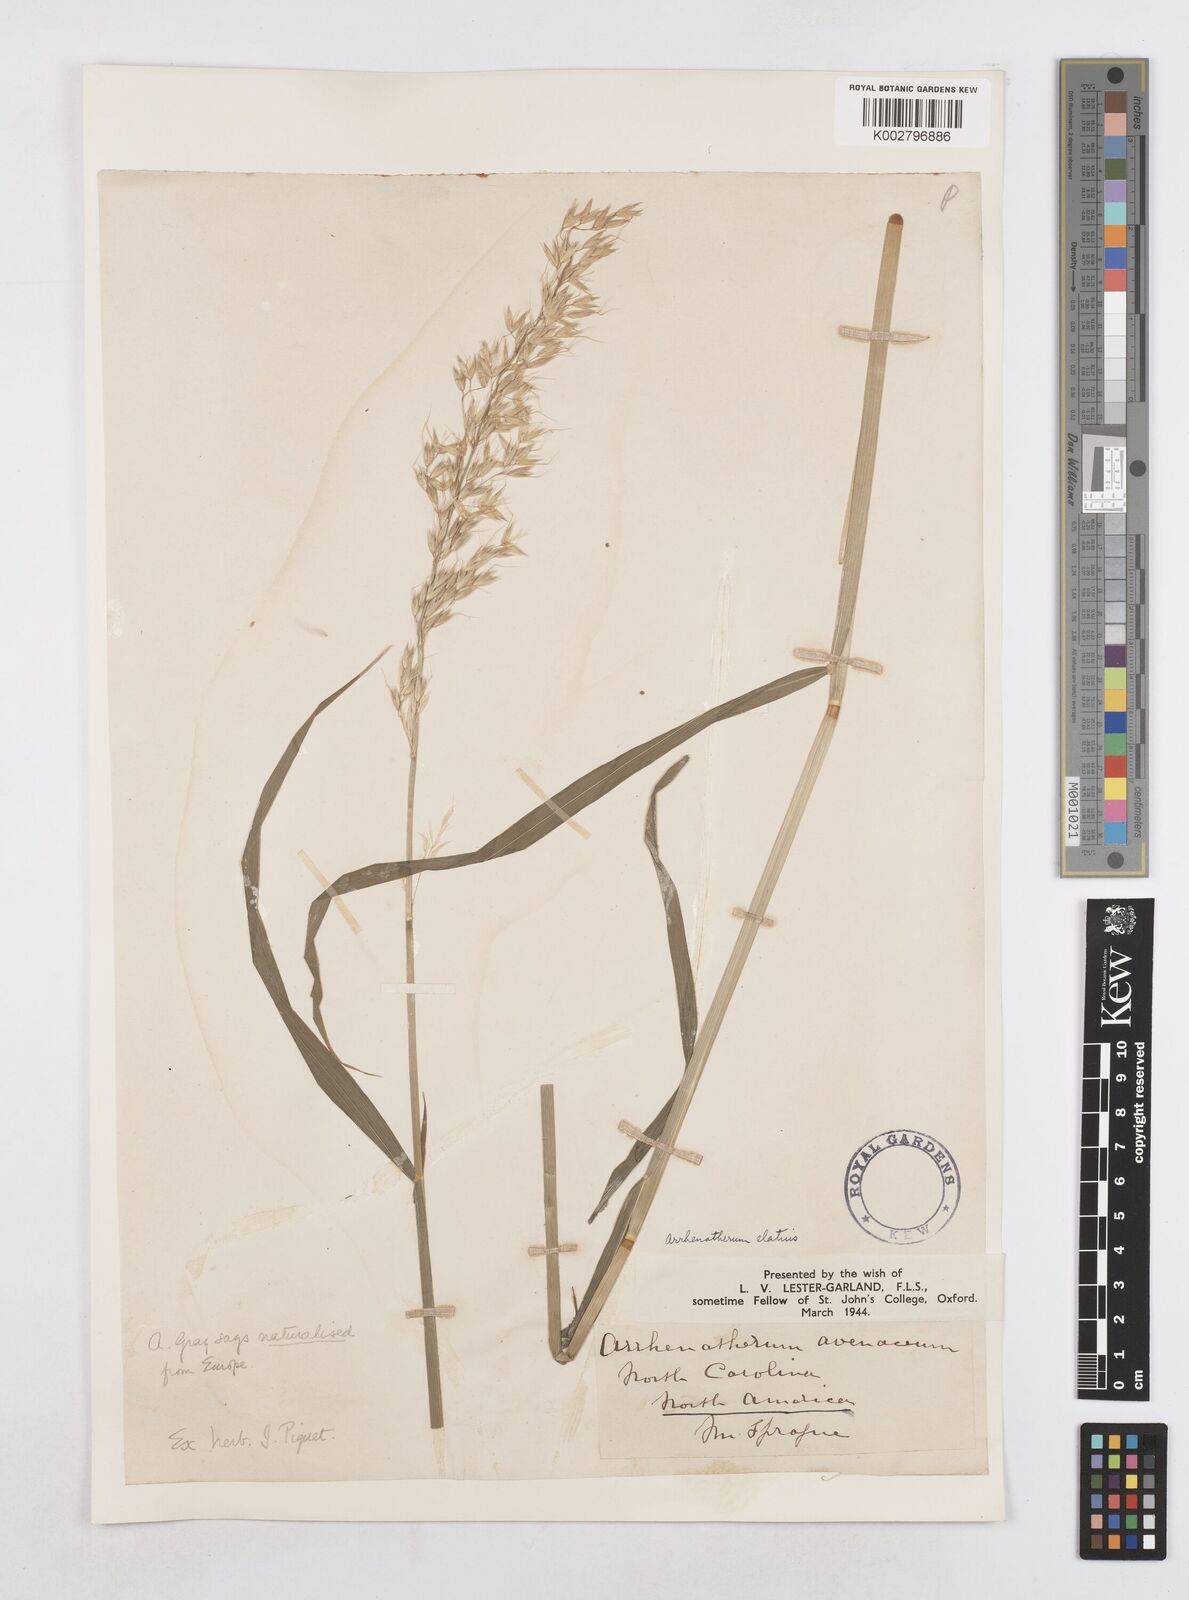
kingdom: Plantae
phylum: Tracheophyta
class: Liliopsida
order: Poales
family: Poaceae
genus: Arrhenatherum
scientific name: Arrhenatherum elatius
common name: Tall oatgrass
